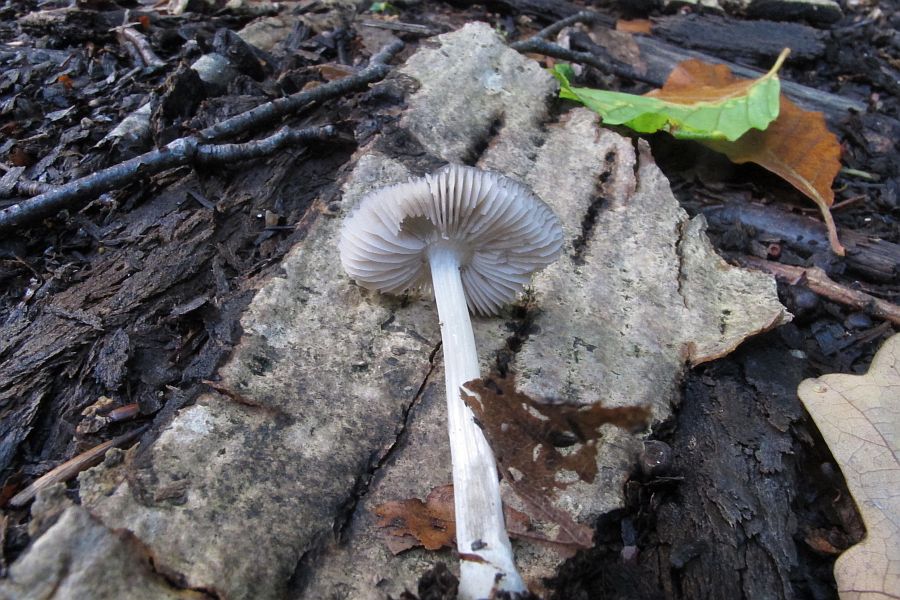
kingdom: Fungi
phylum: Basidiomycota
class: Agaricomycetes
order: Agaricales
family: Pluteaceae
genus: Pluteus
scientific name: Pluteus salicinus
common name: stiv skærmhat
